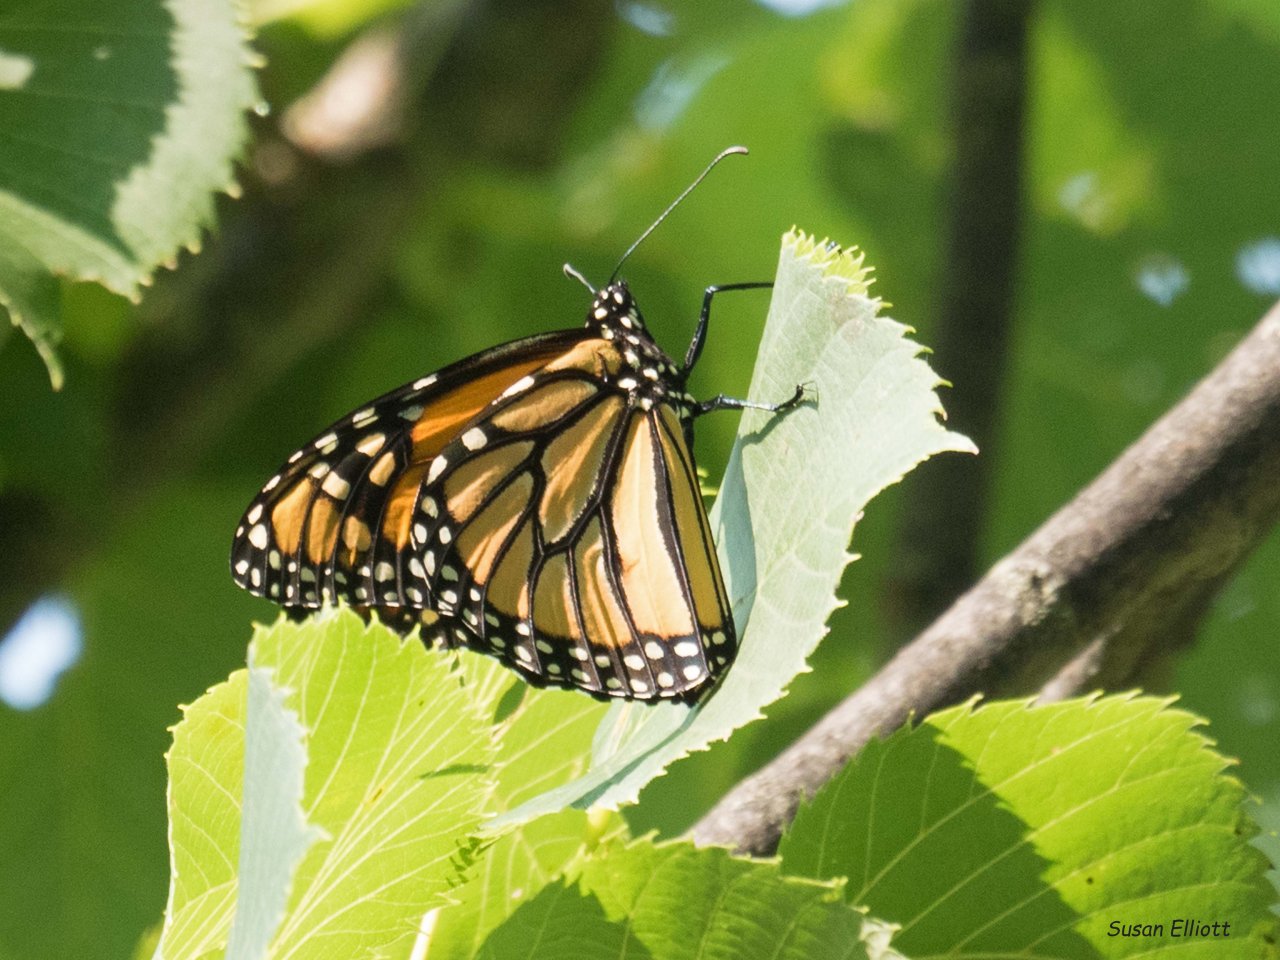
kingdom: Animalia
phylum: Arthropoda
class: Insecta
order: Lepidoptera
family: Nymphalidae
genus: Danaus
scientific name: Danaus plexippus
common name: Monarch
